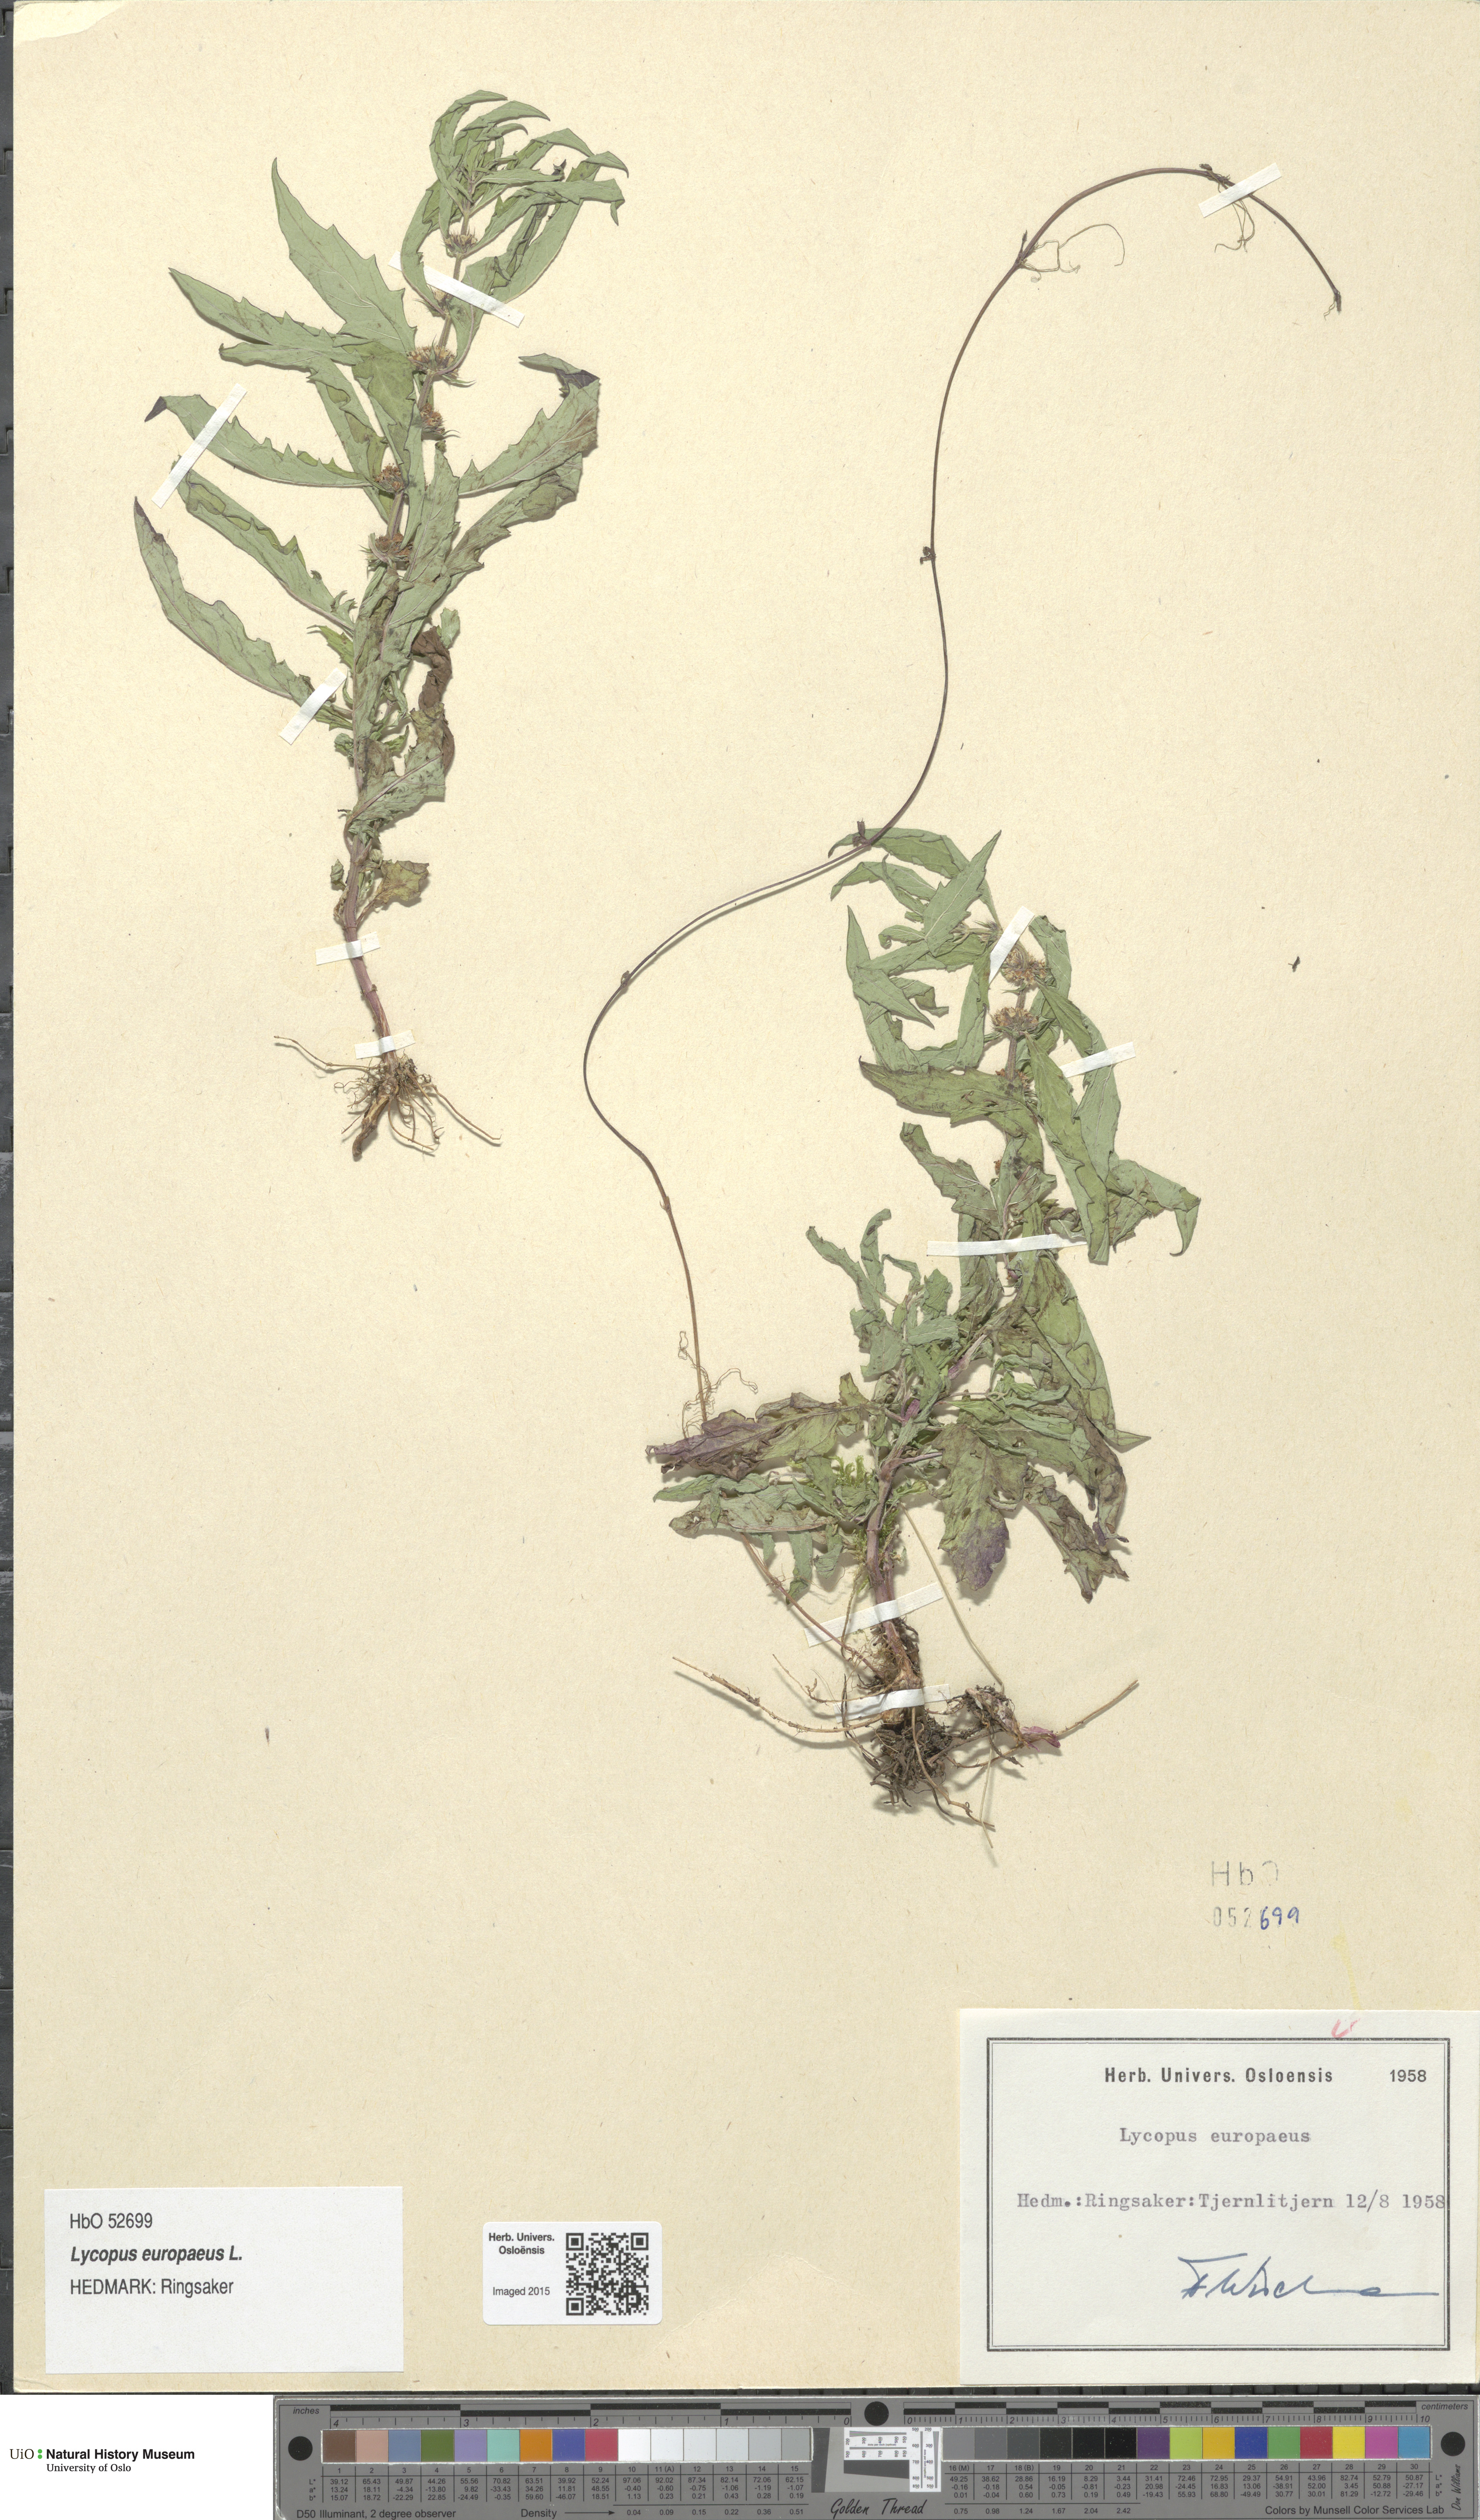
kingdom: Plantae
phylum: Tracheophyta
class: Magnoliopsida
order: Lamiales
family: Lamiaceae
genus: Lycopus
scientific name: Lycopus europaeus
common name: European bugleweed
